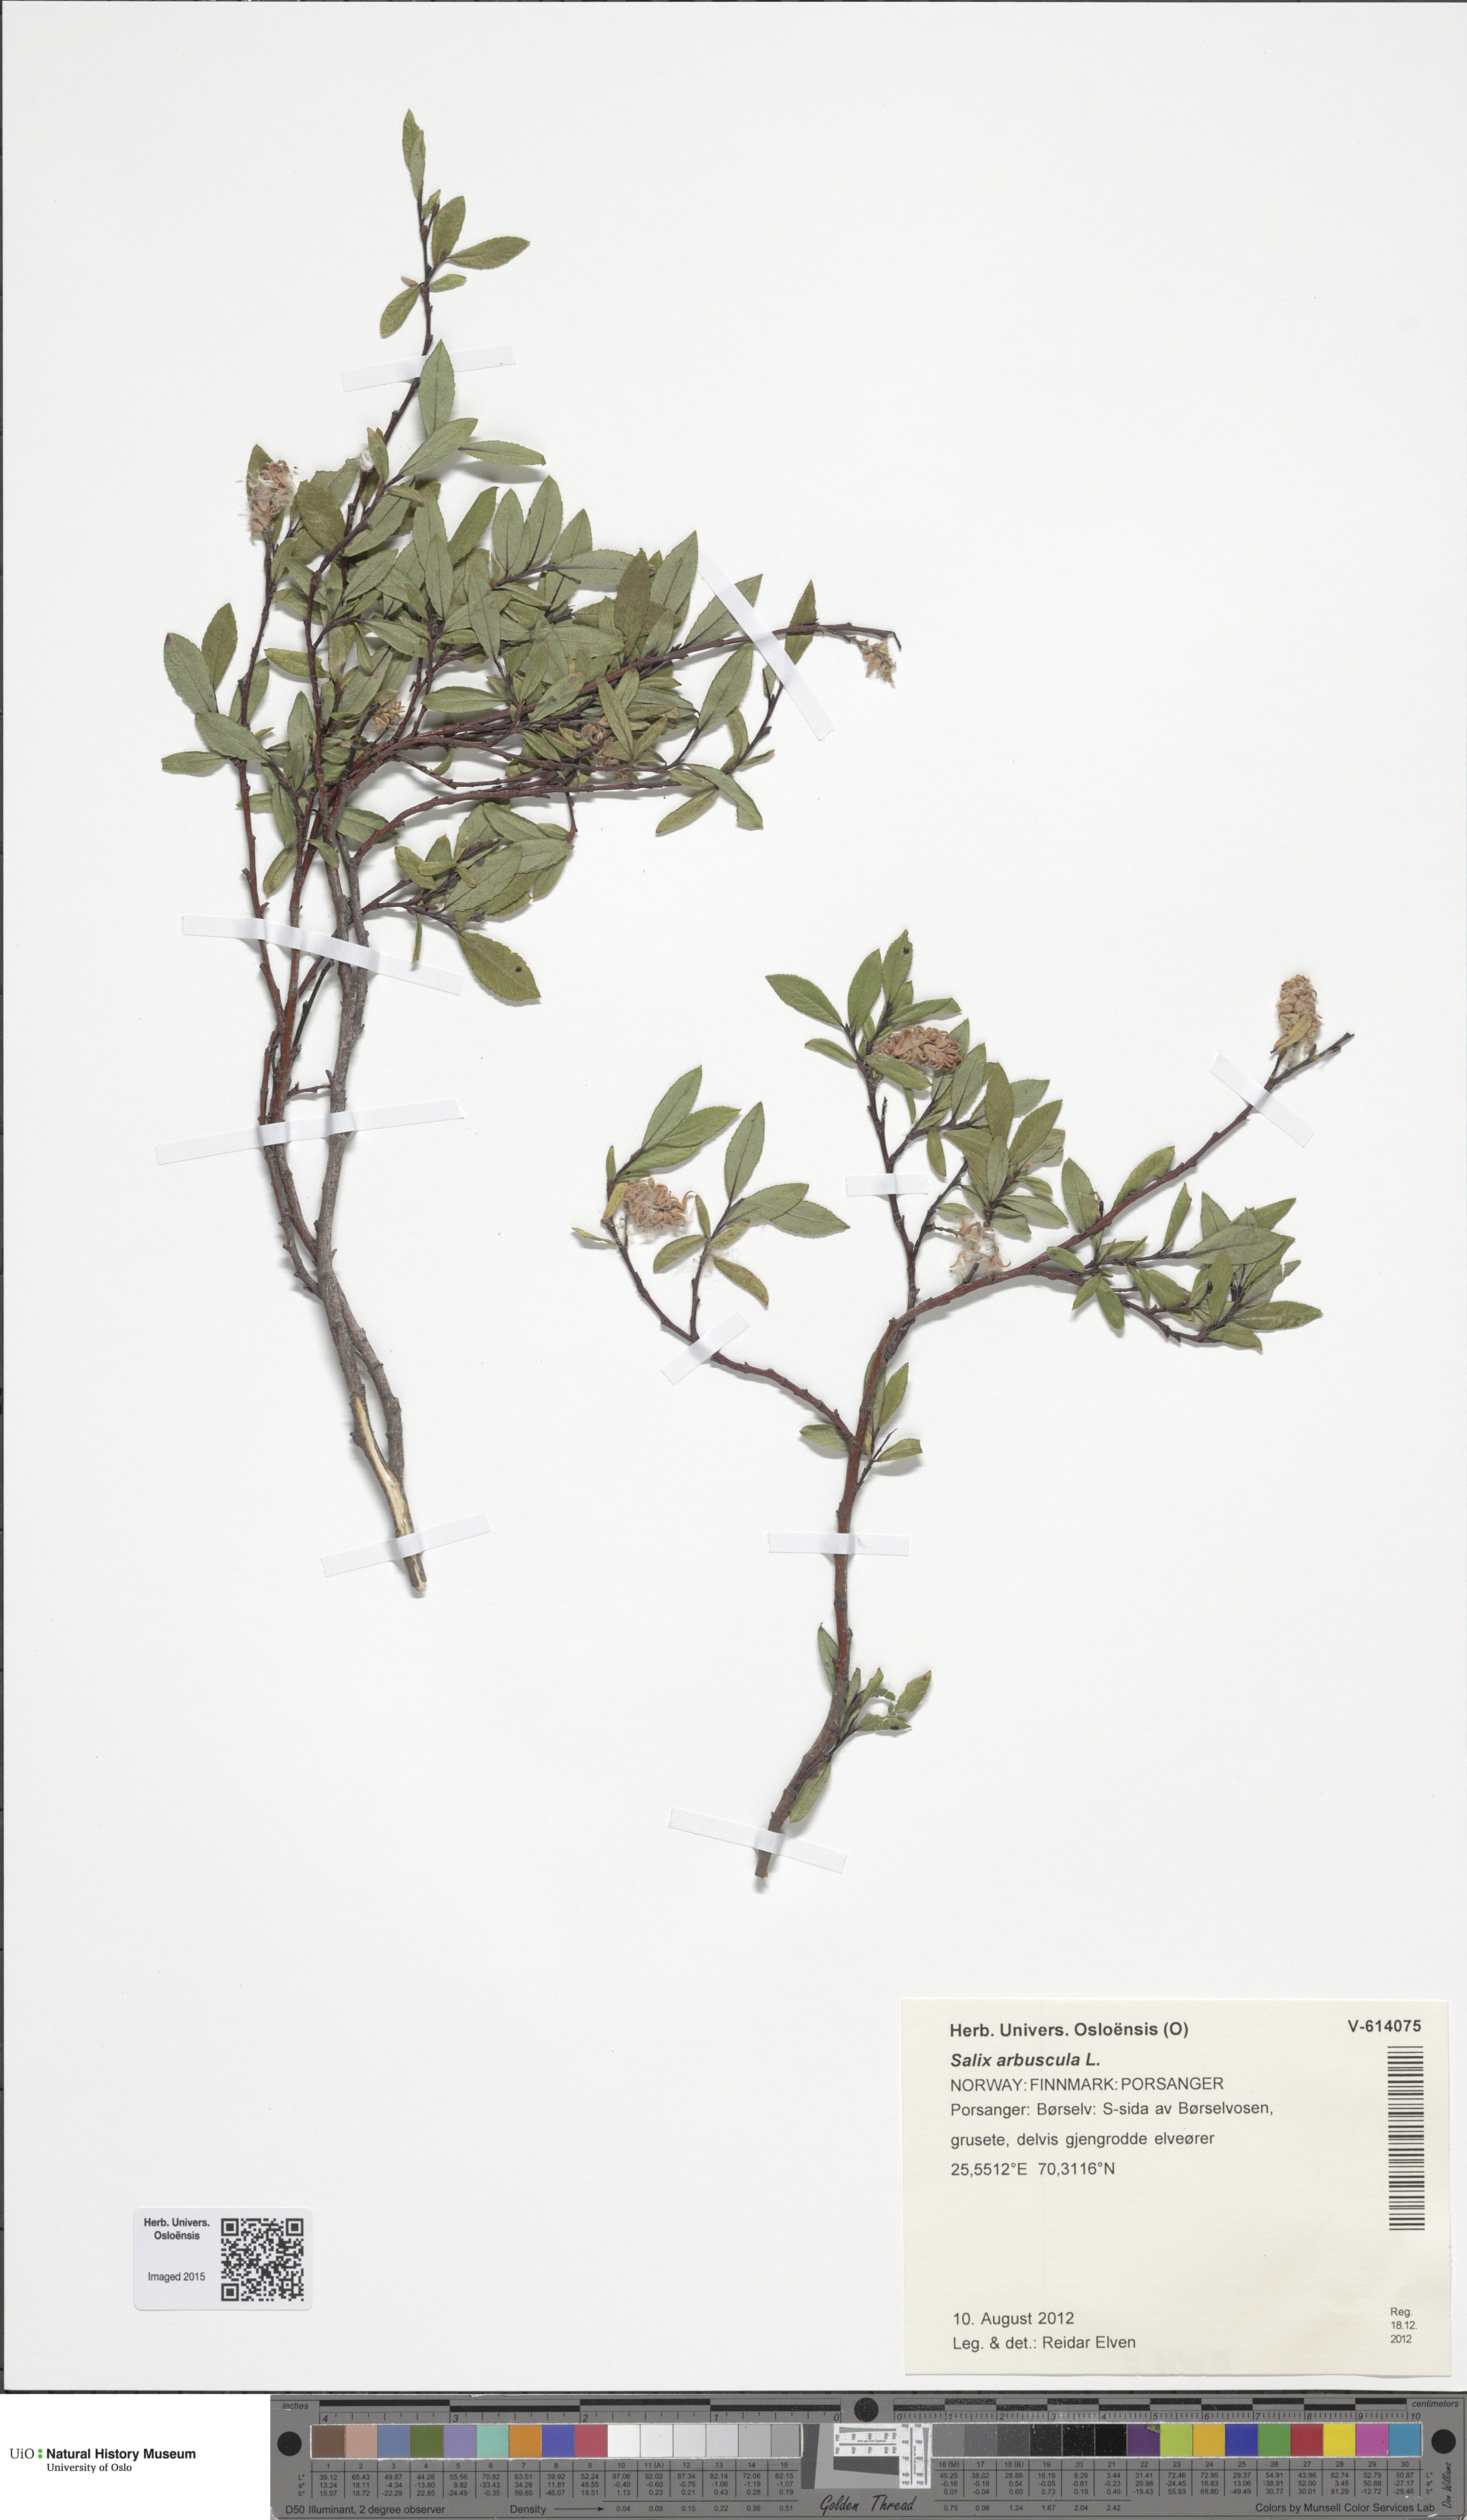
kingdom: Plantae
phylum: Tracheophyta
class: Magnoliopsida
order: Malpighiales
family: Salicaceae
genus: Salix
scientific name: Salix arbuscula
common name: Mountain willow
